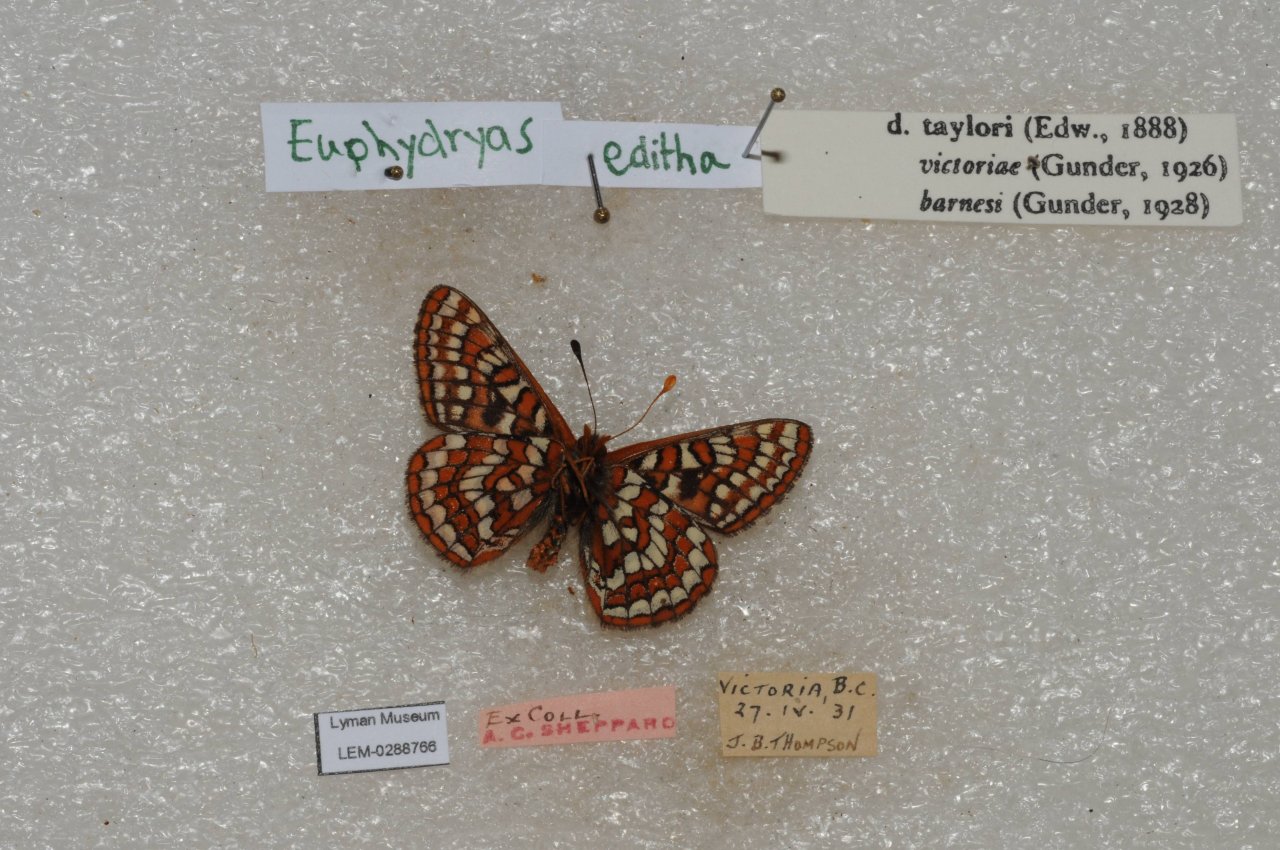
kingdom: Animalia
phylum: Arthropoda
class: Insecta
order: Lepidoptera
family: Nymphalidae
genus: Occidryas
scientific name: Occidryas editha
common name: Edith's Checkerspot
